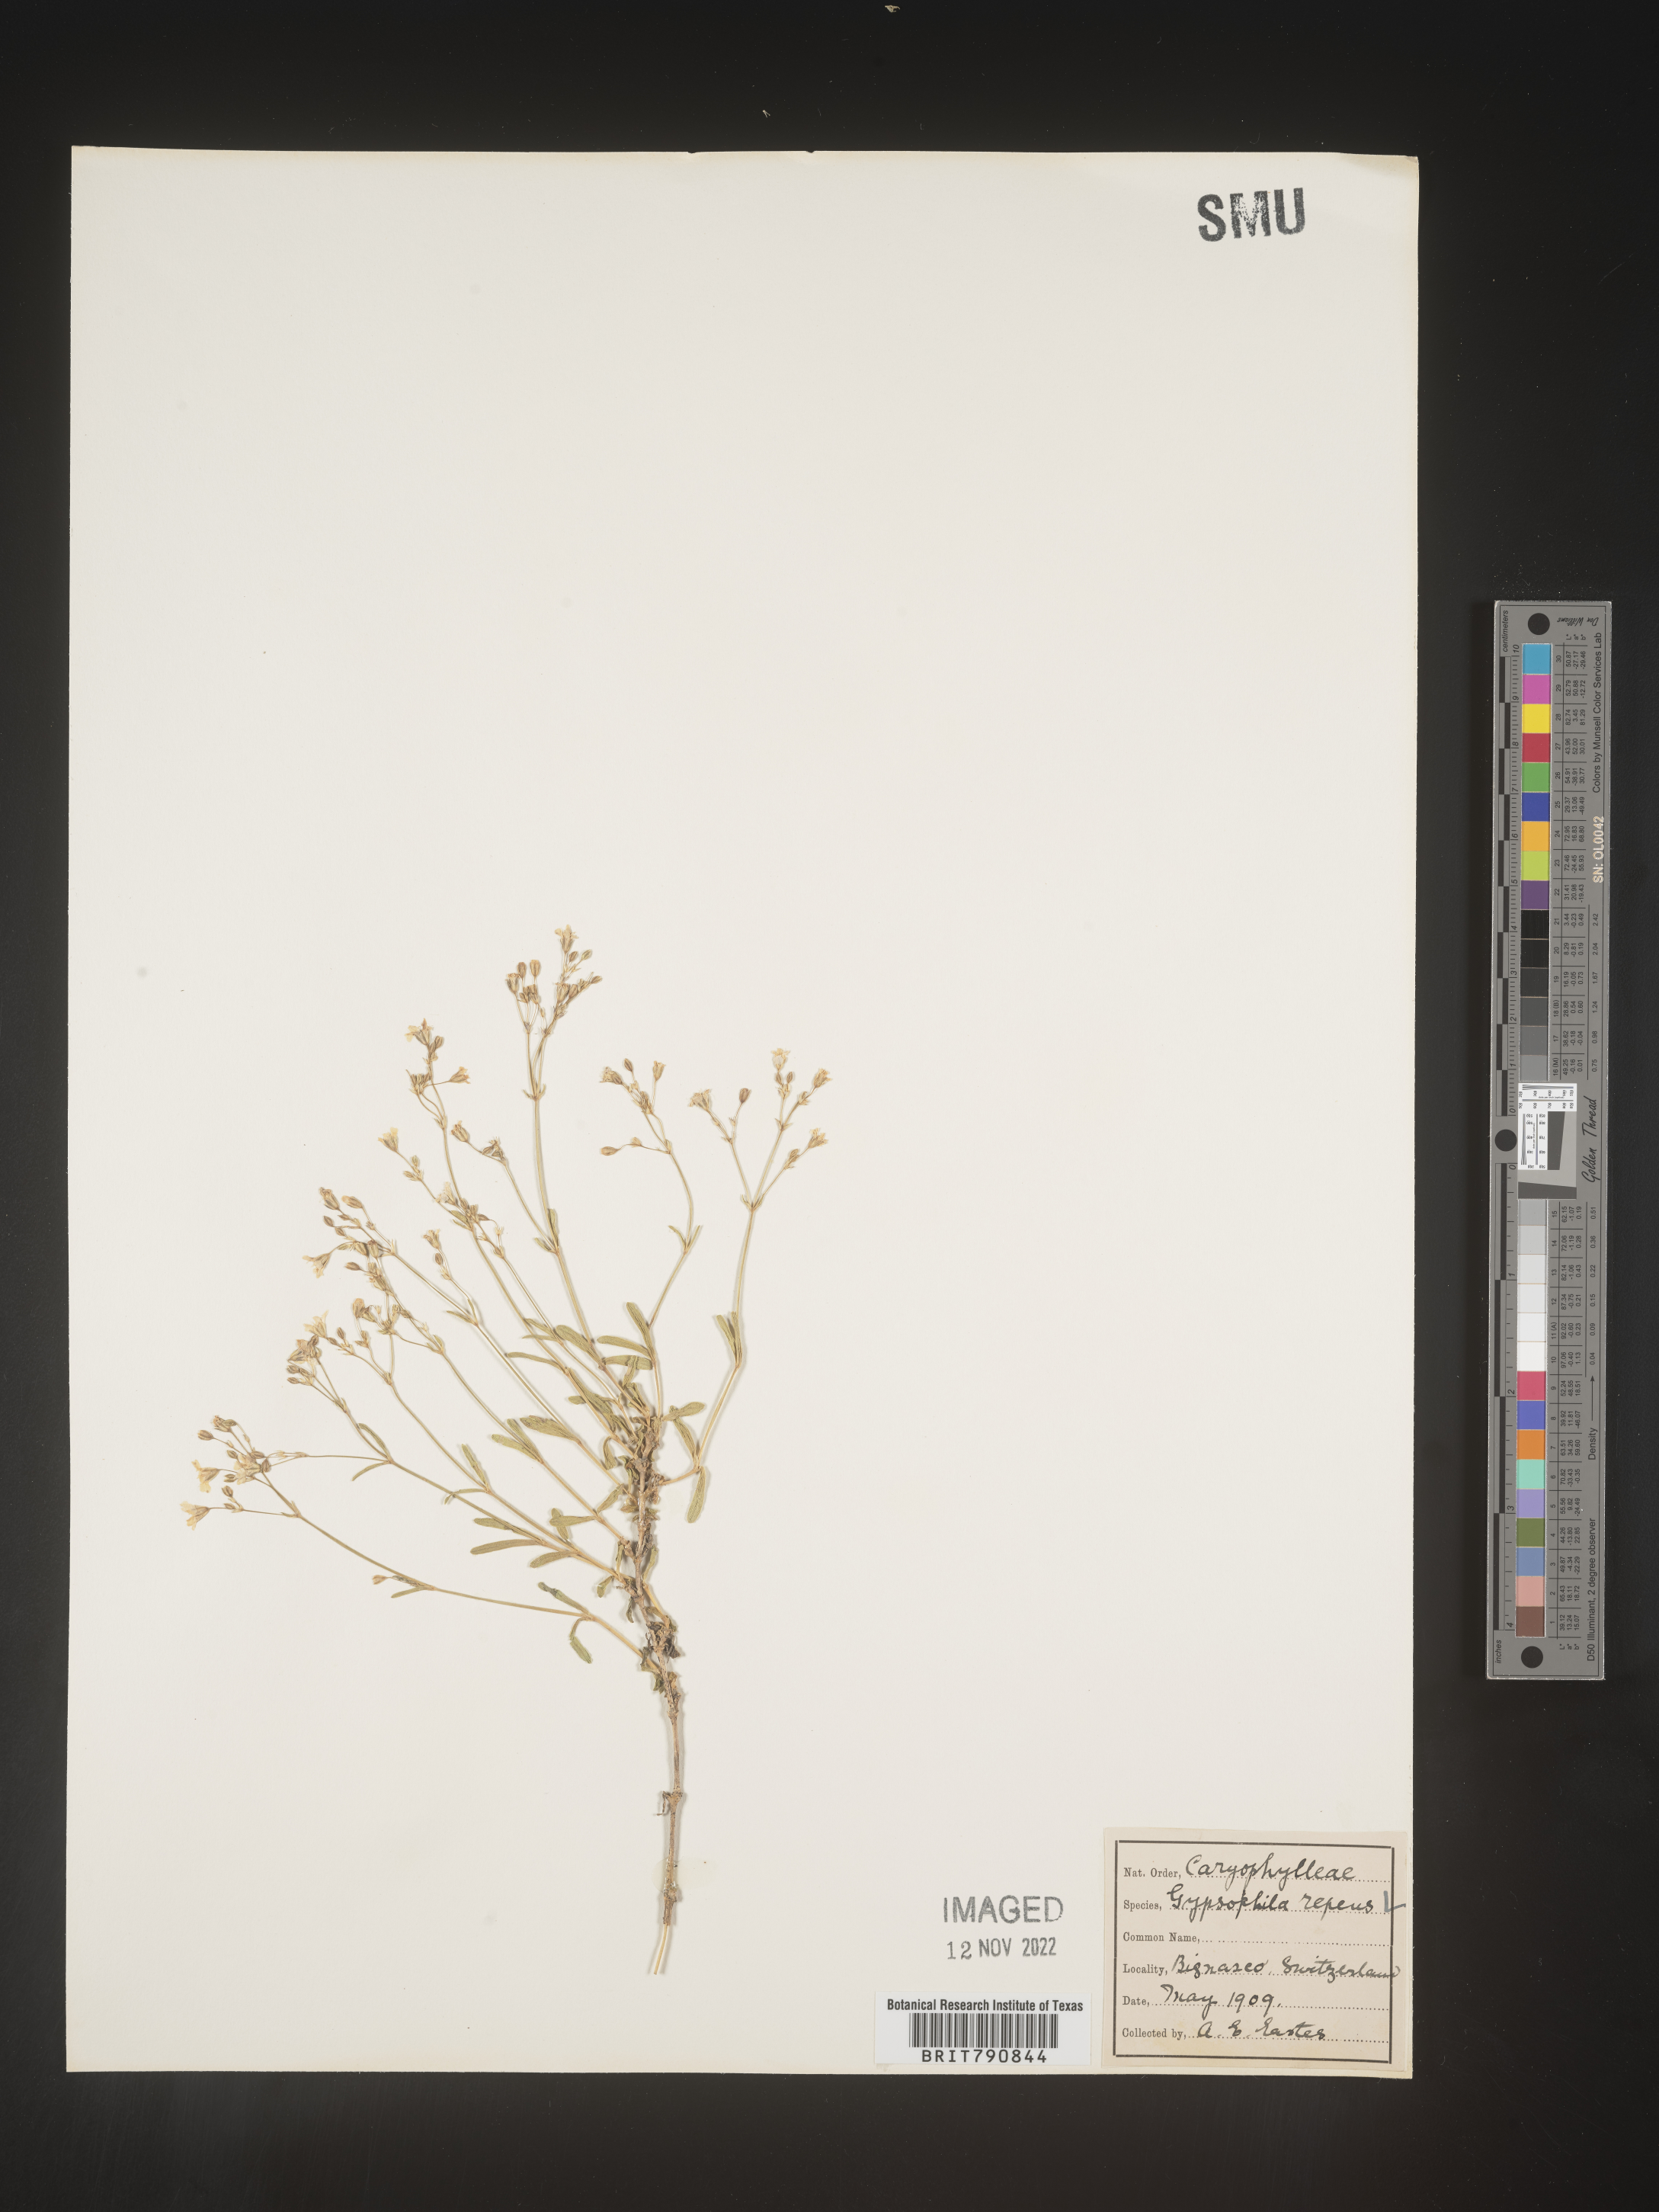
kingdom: Plantae
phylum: Tracheophyta
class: Magnoliopsida
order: Caryophyllales
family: Caryophyllaceae
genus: Gypsophila
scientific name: Gypsophila
